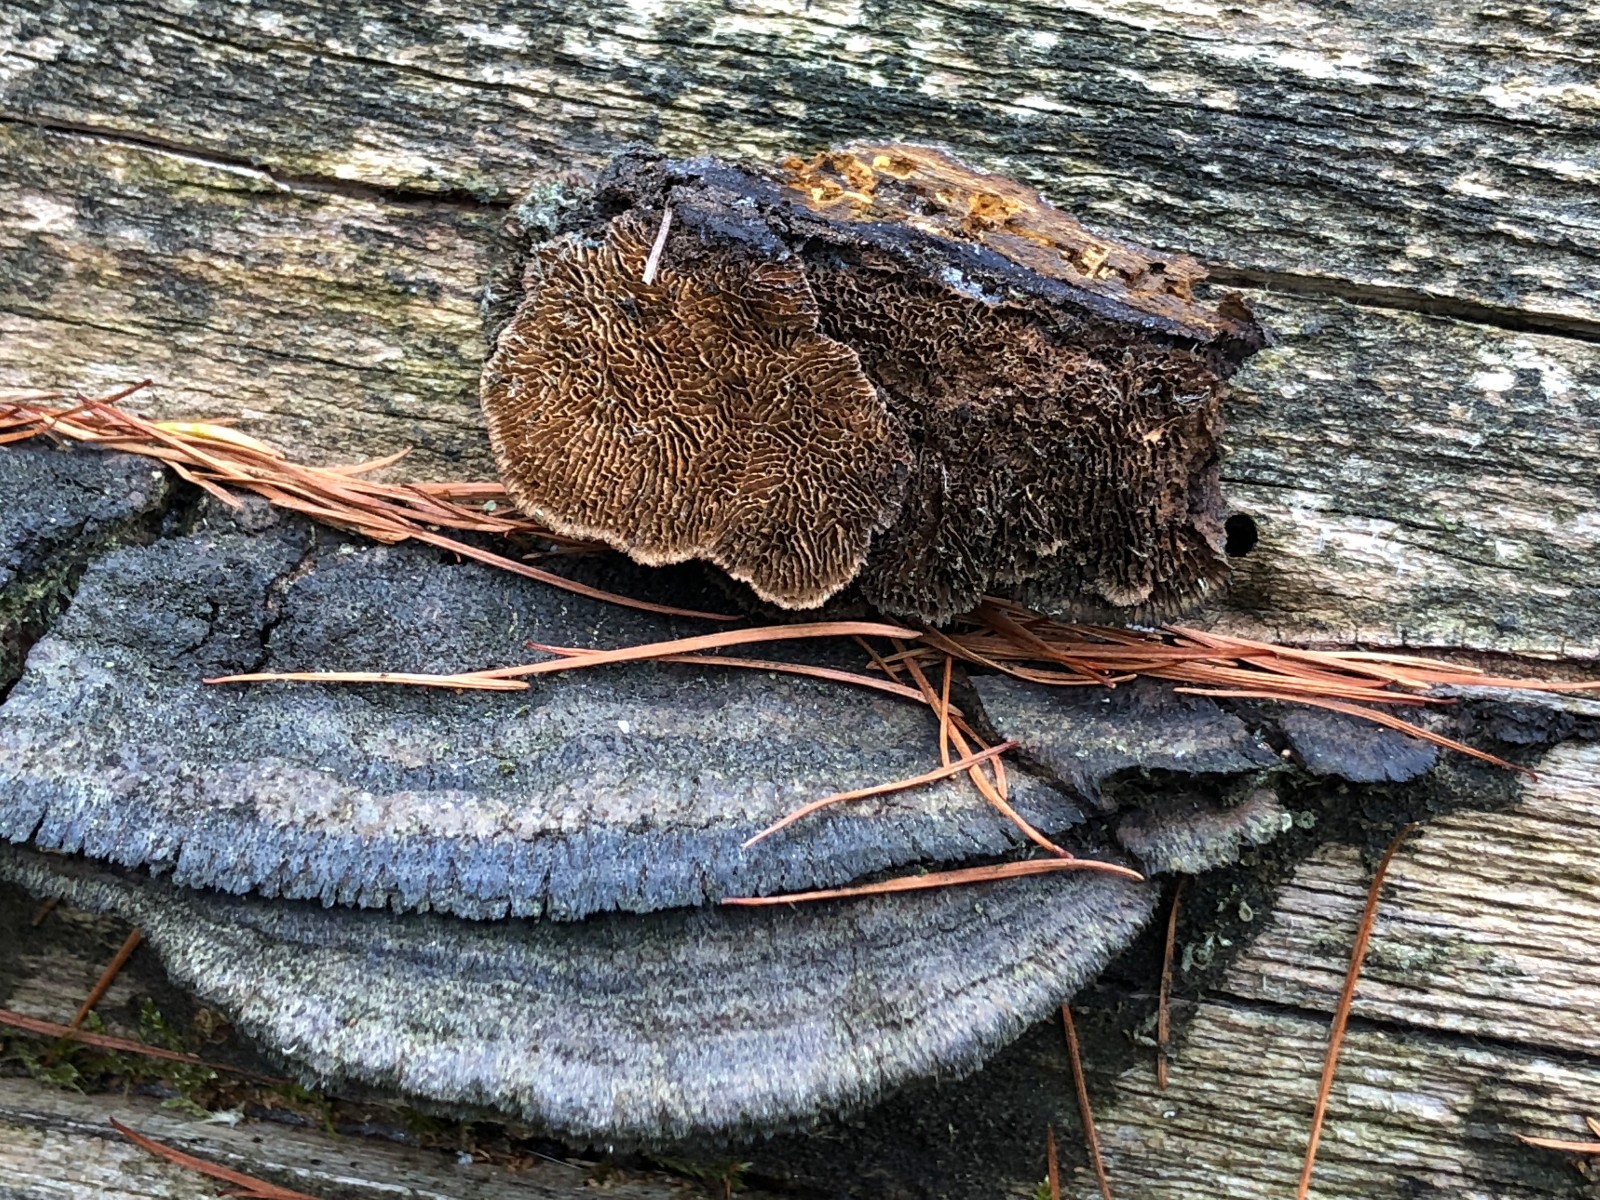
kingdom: Fungi
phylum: Basidiomycota
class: Agaricomycetes
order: Gloeophyllales
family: Gloeophyllaceae
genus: Gloeophyllum
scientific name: Gloeophyllum sepiarium
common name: fyrre-korkhat
